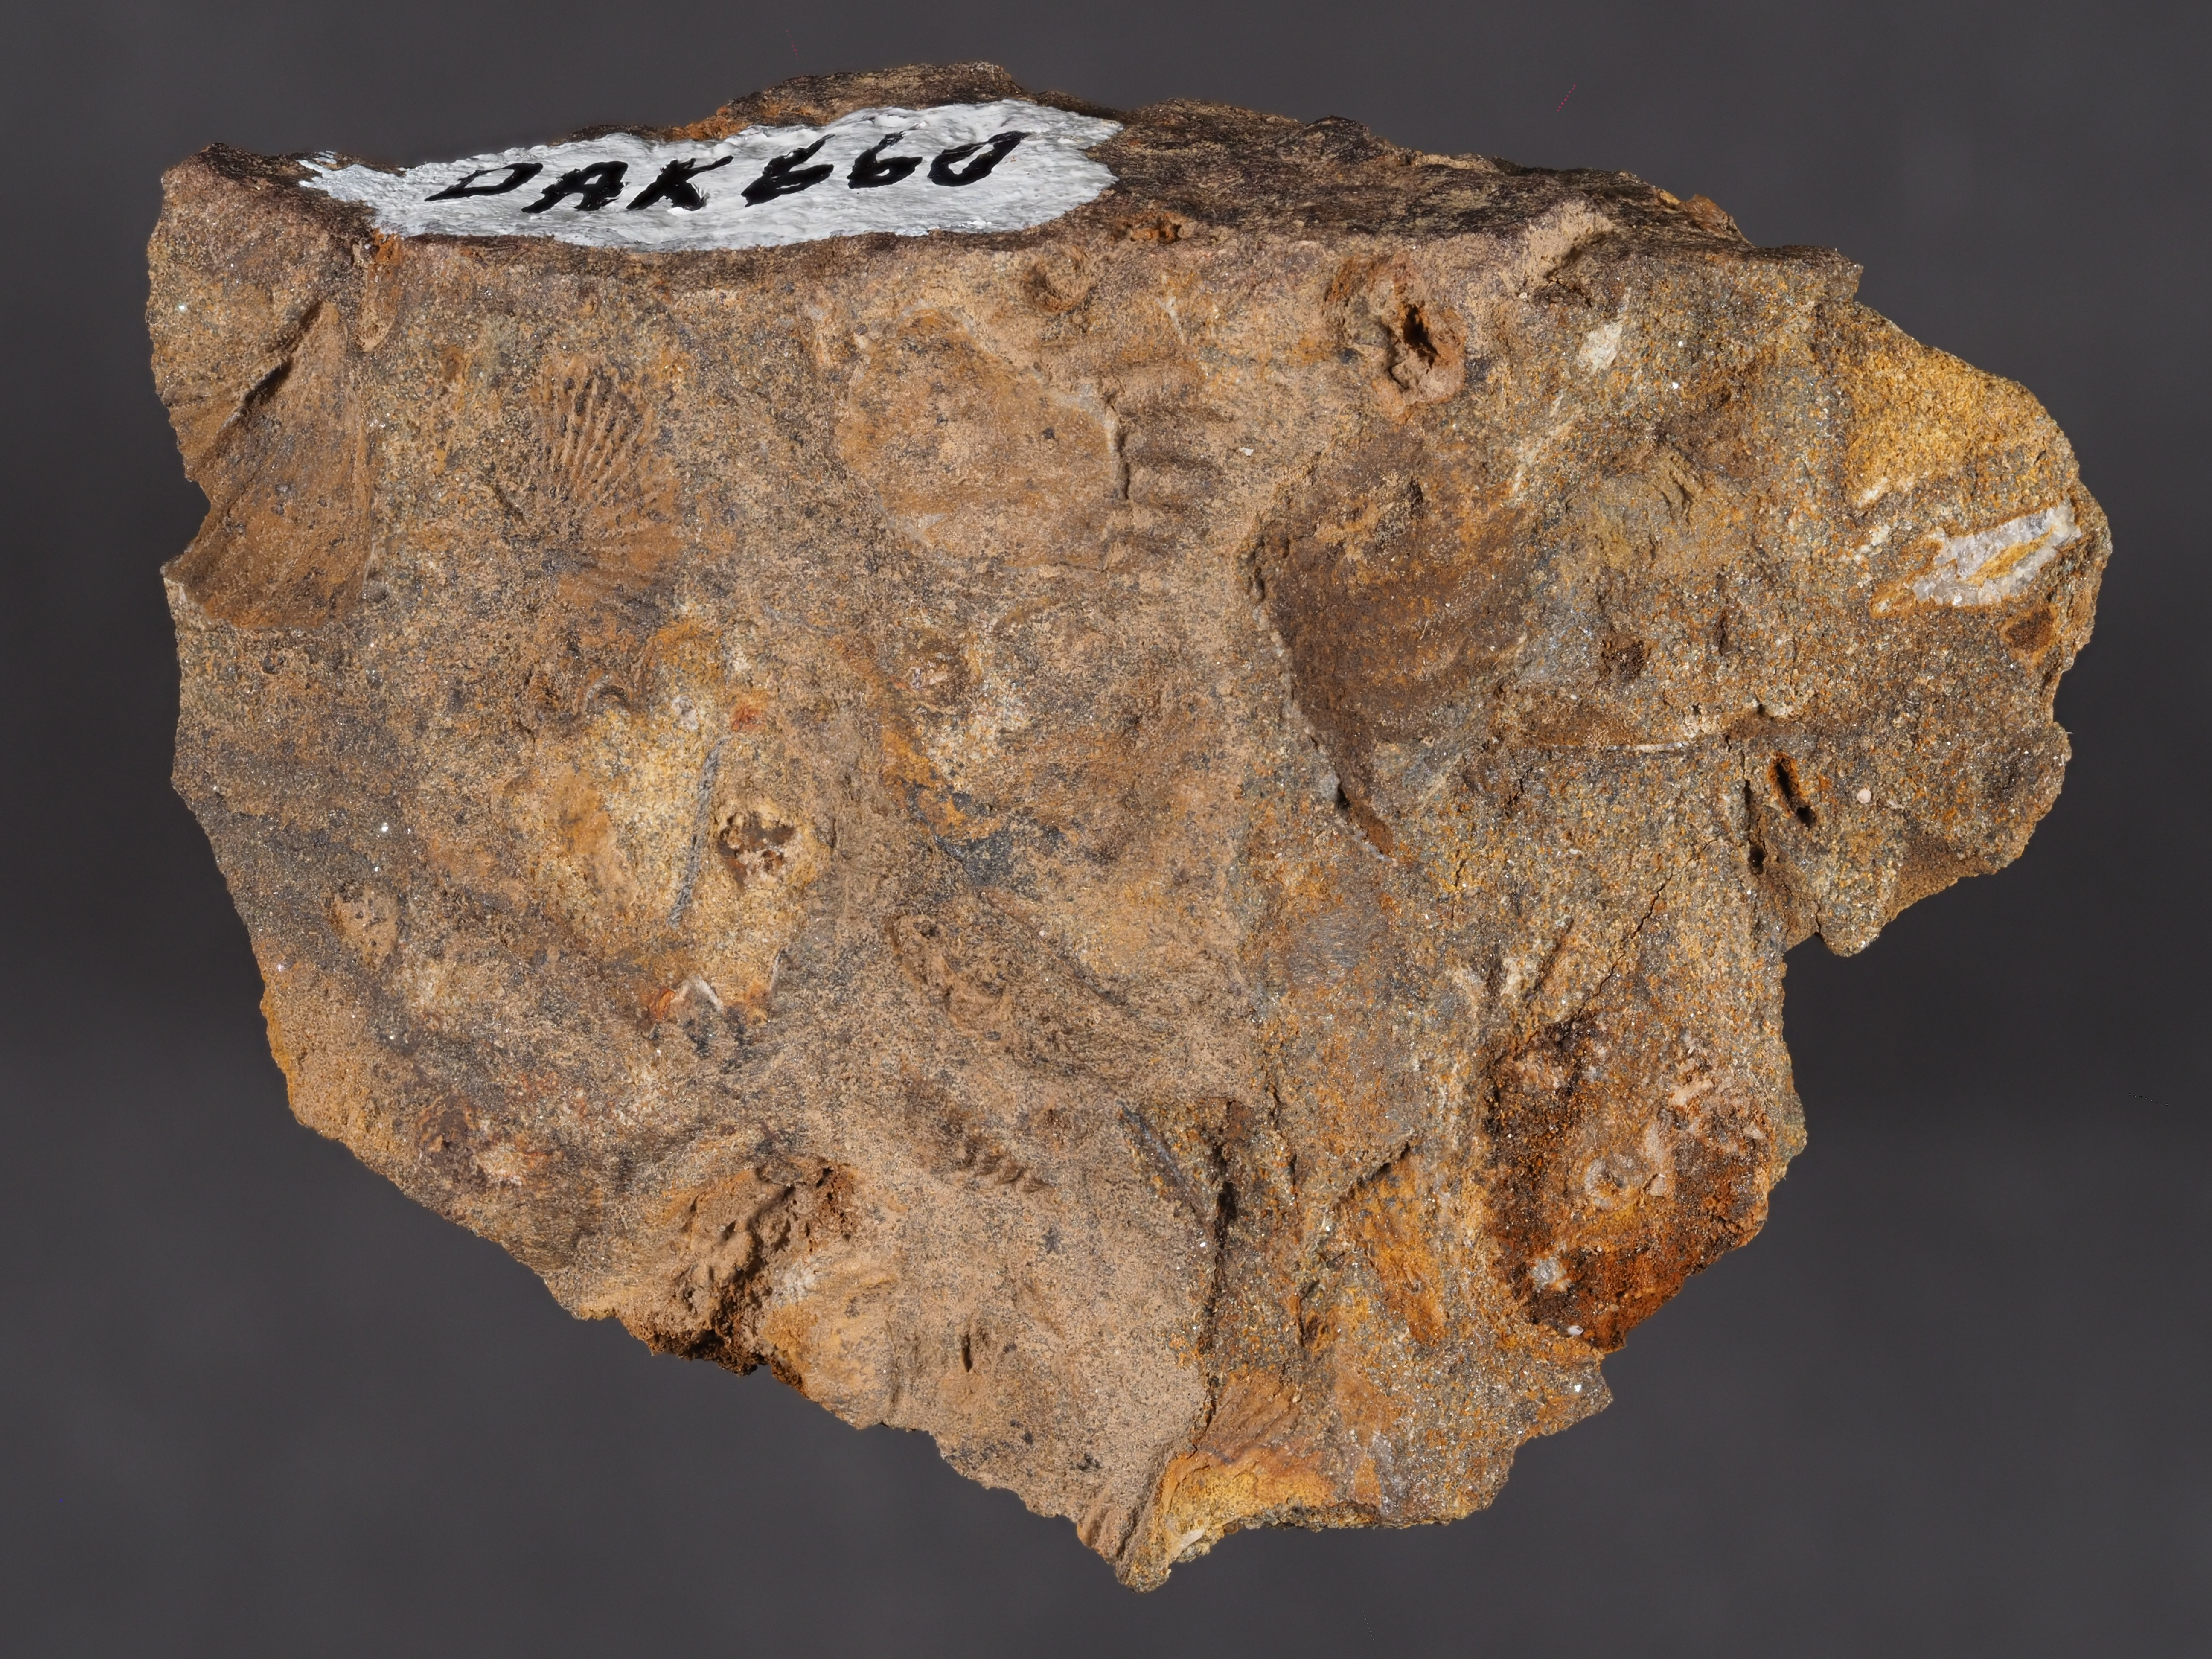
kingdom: Animalia
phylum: Brachiopoda
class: Rhynchonellata
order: Rhynchonellida
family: Trigonirhynchiidae
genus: Oligoptycherhynchus
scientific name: Oligoptycherhynchus
